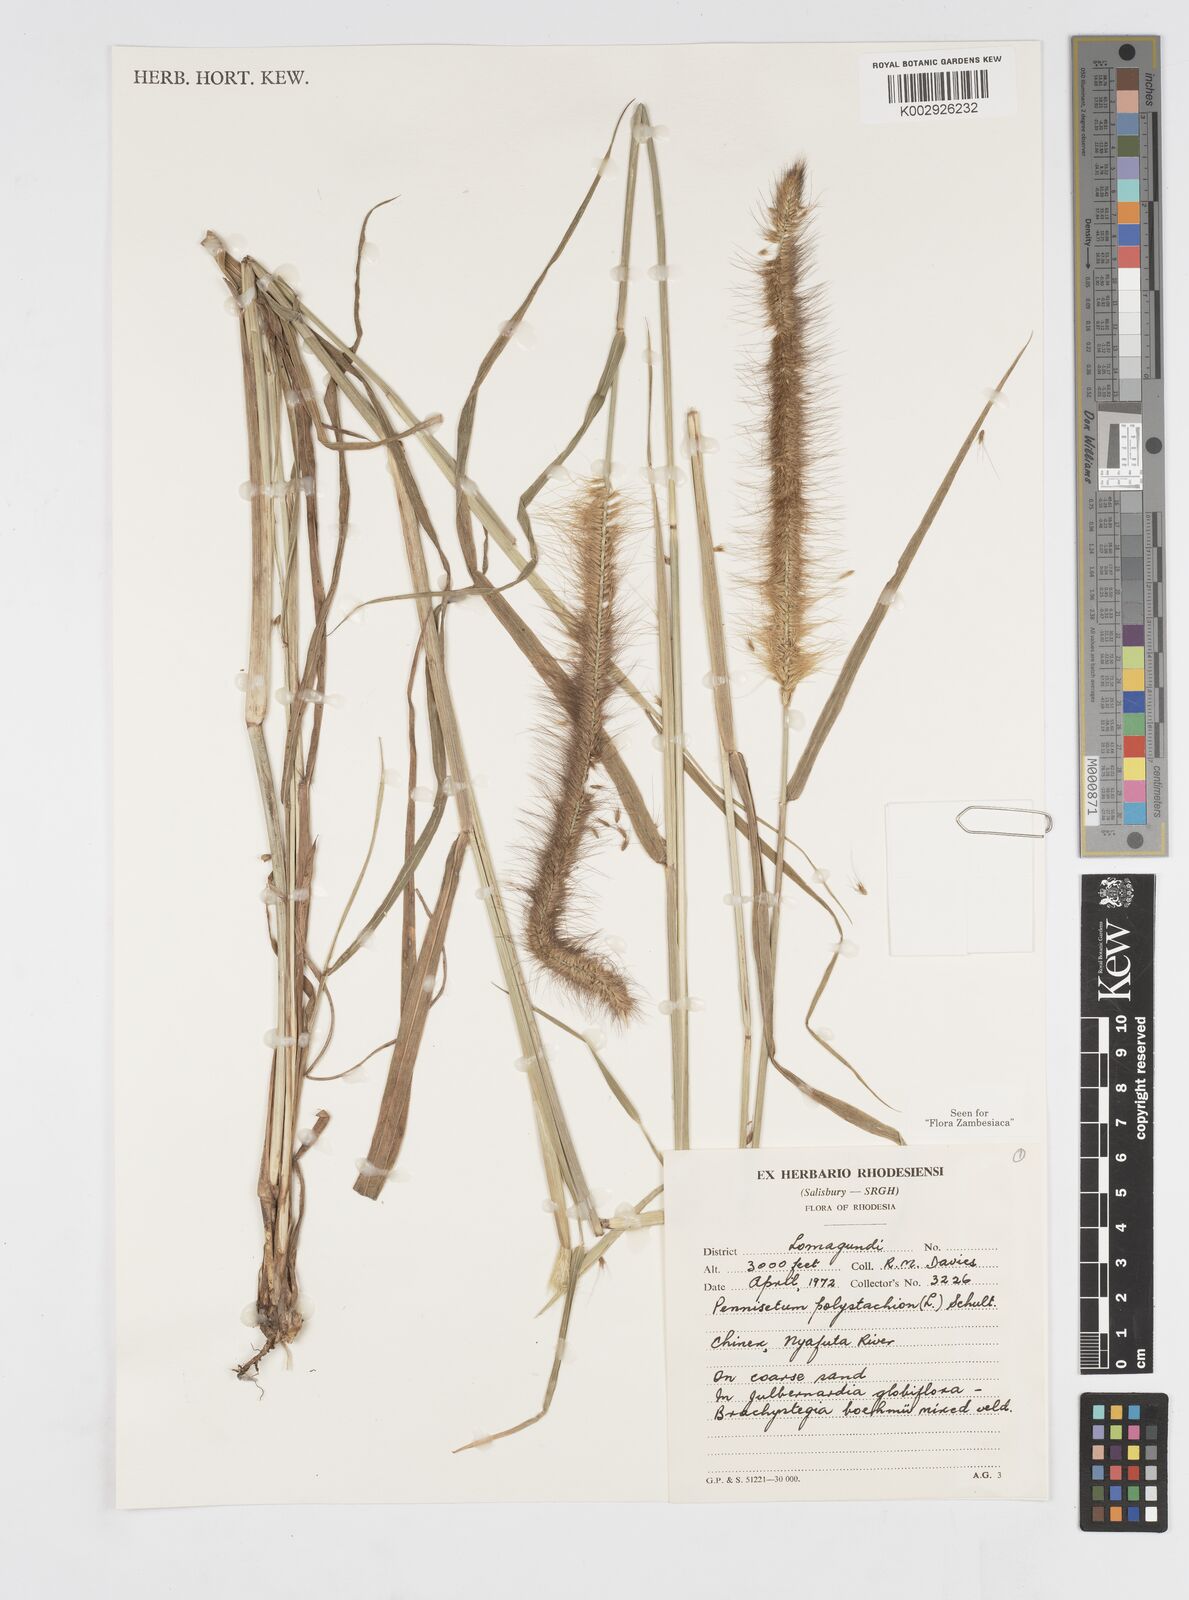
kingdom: Plantae
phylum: Tracheophyta
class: Liliopsida
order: Poales
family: Poaceae
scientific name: Poaceae
